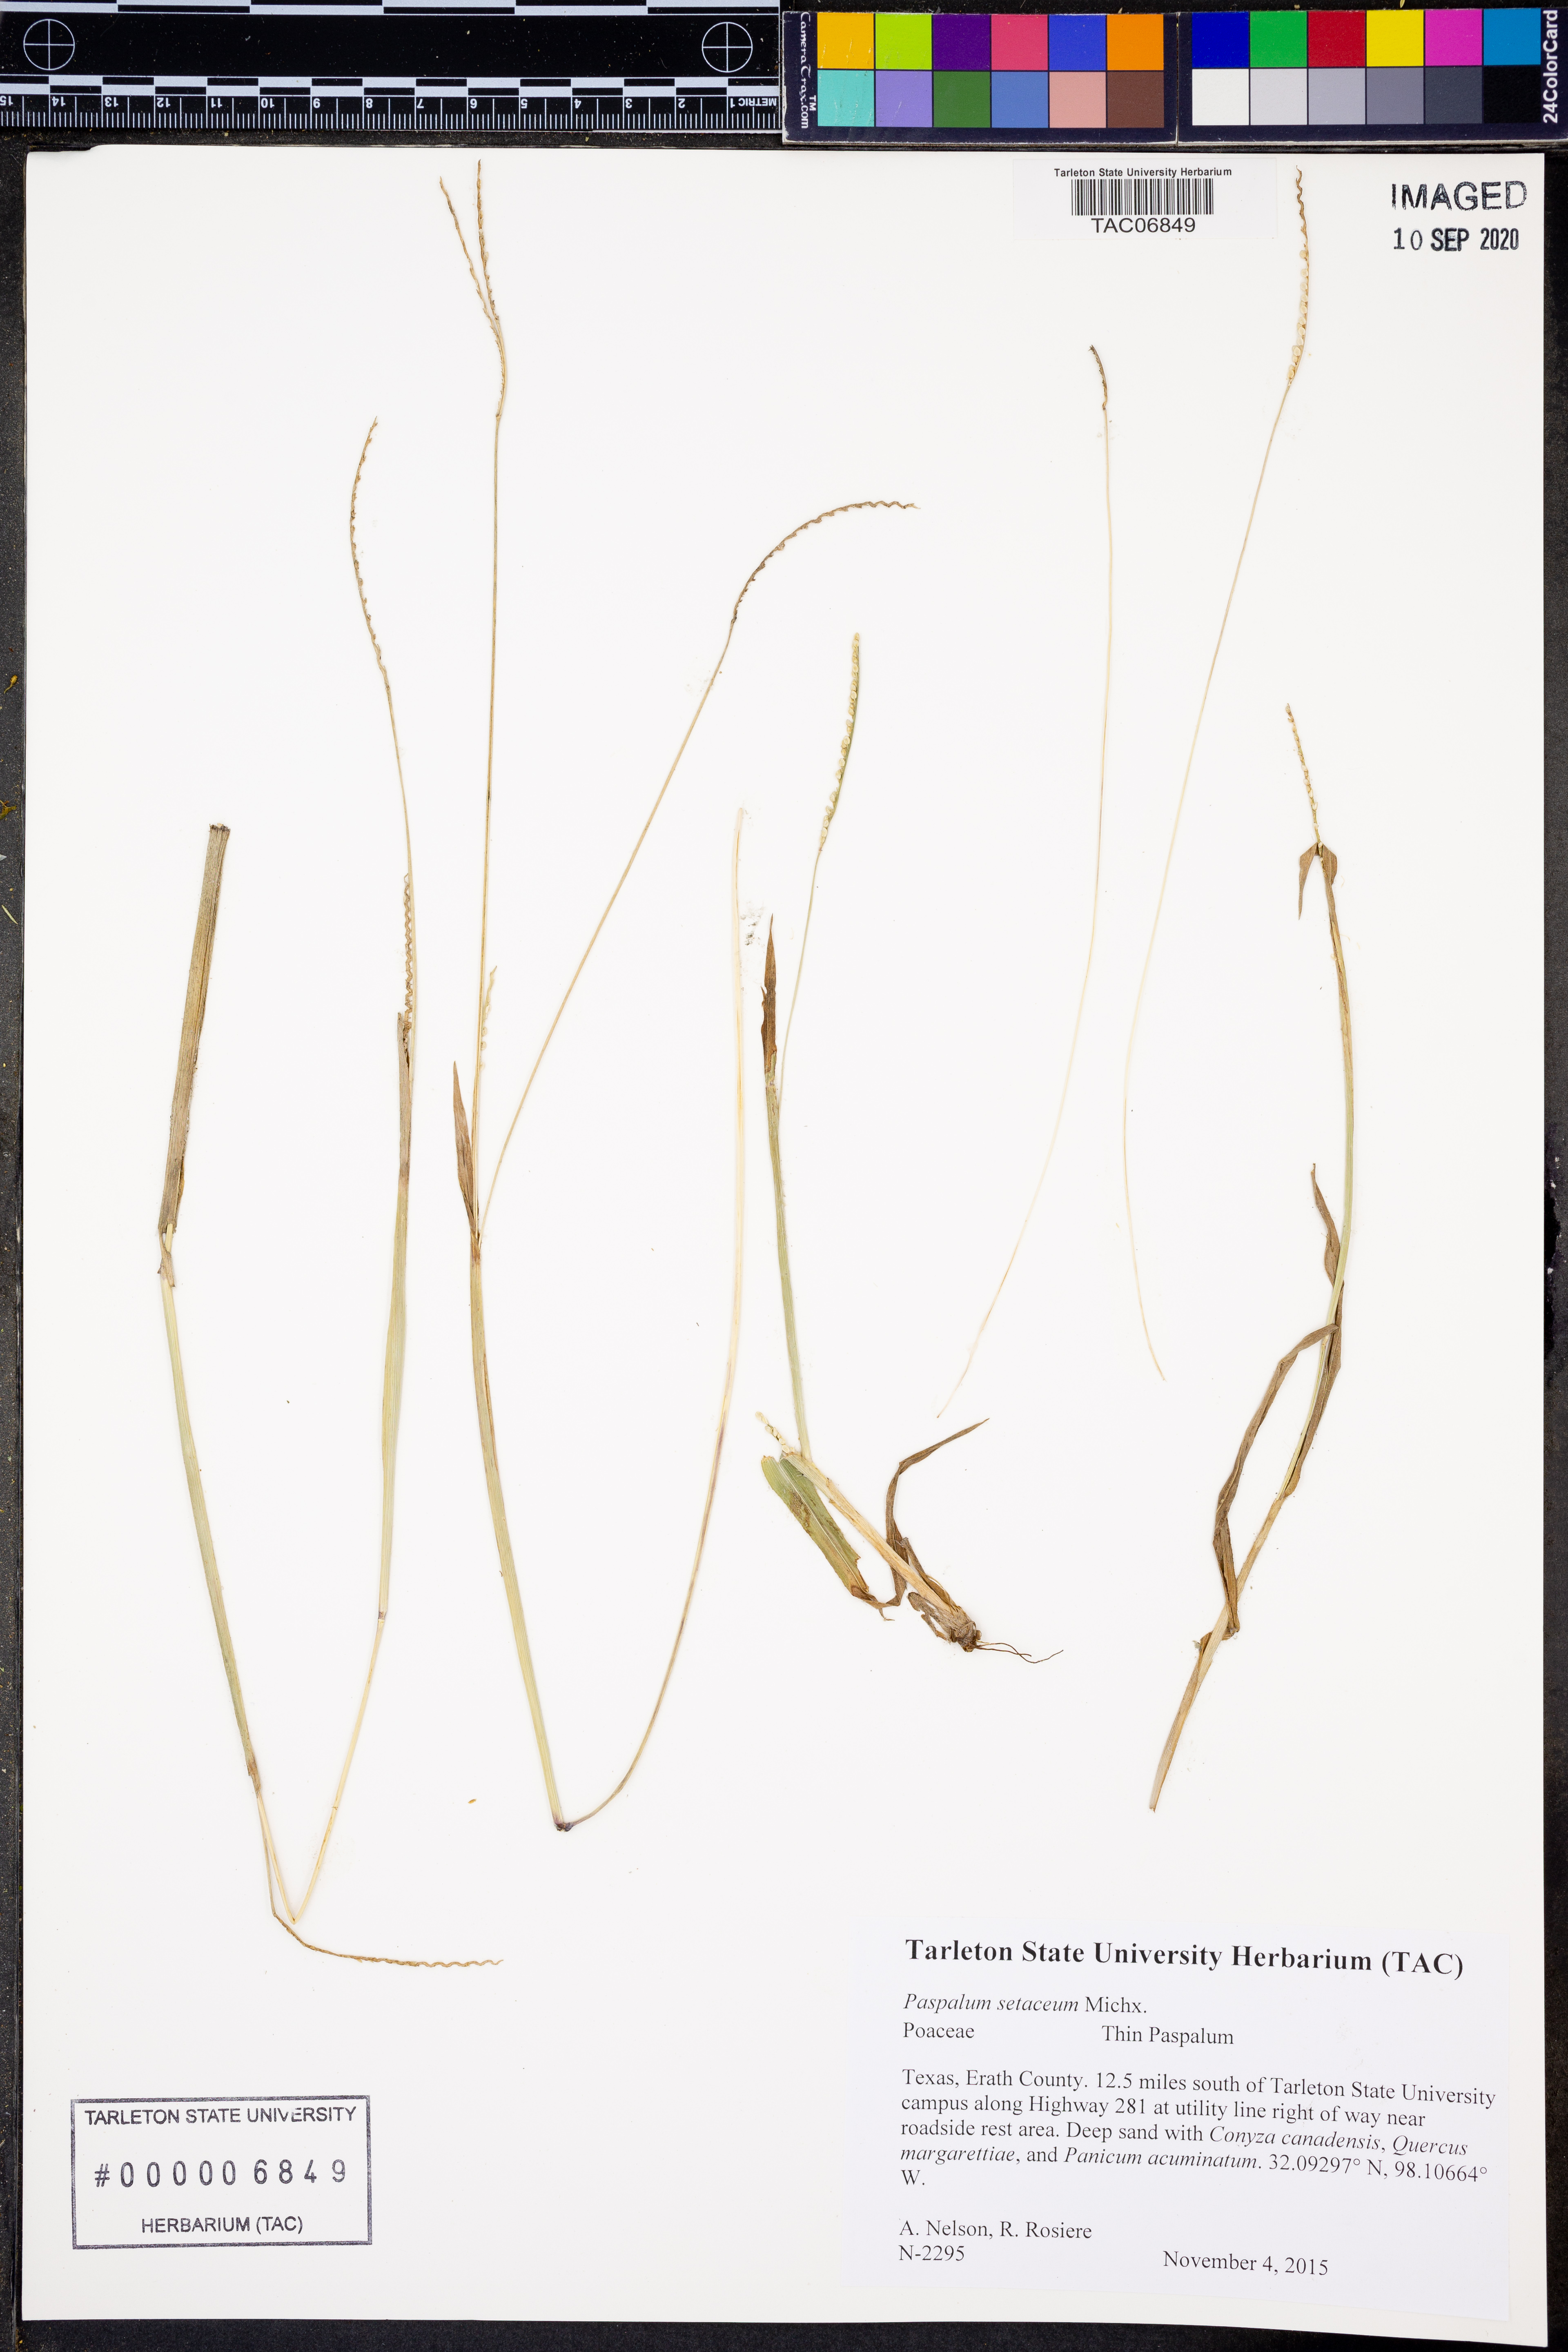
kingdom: Plantae
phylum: Tracheophyta
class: Liliopsida
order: Poales
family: Poaceae
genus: Paspalum
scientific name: Paspalum setaceum
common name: Slender paspalum
